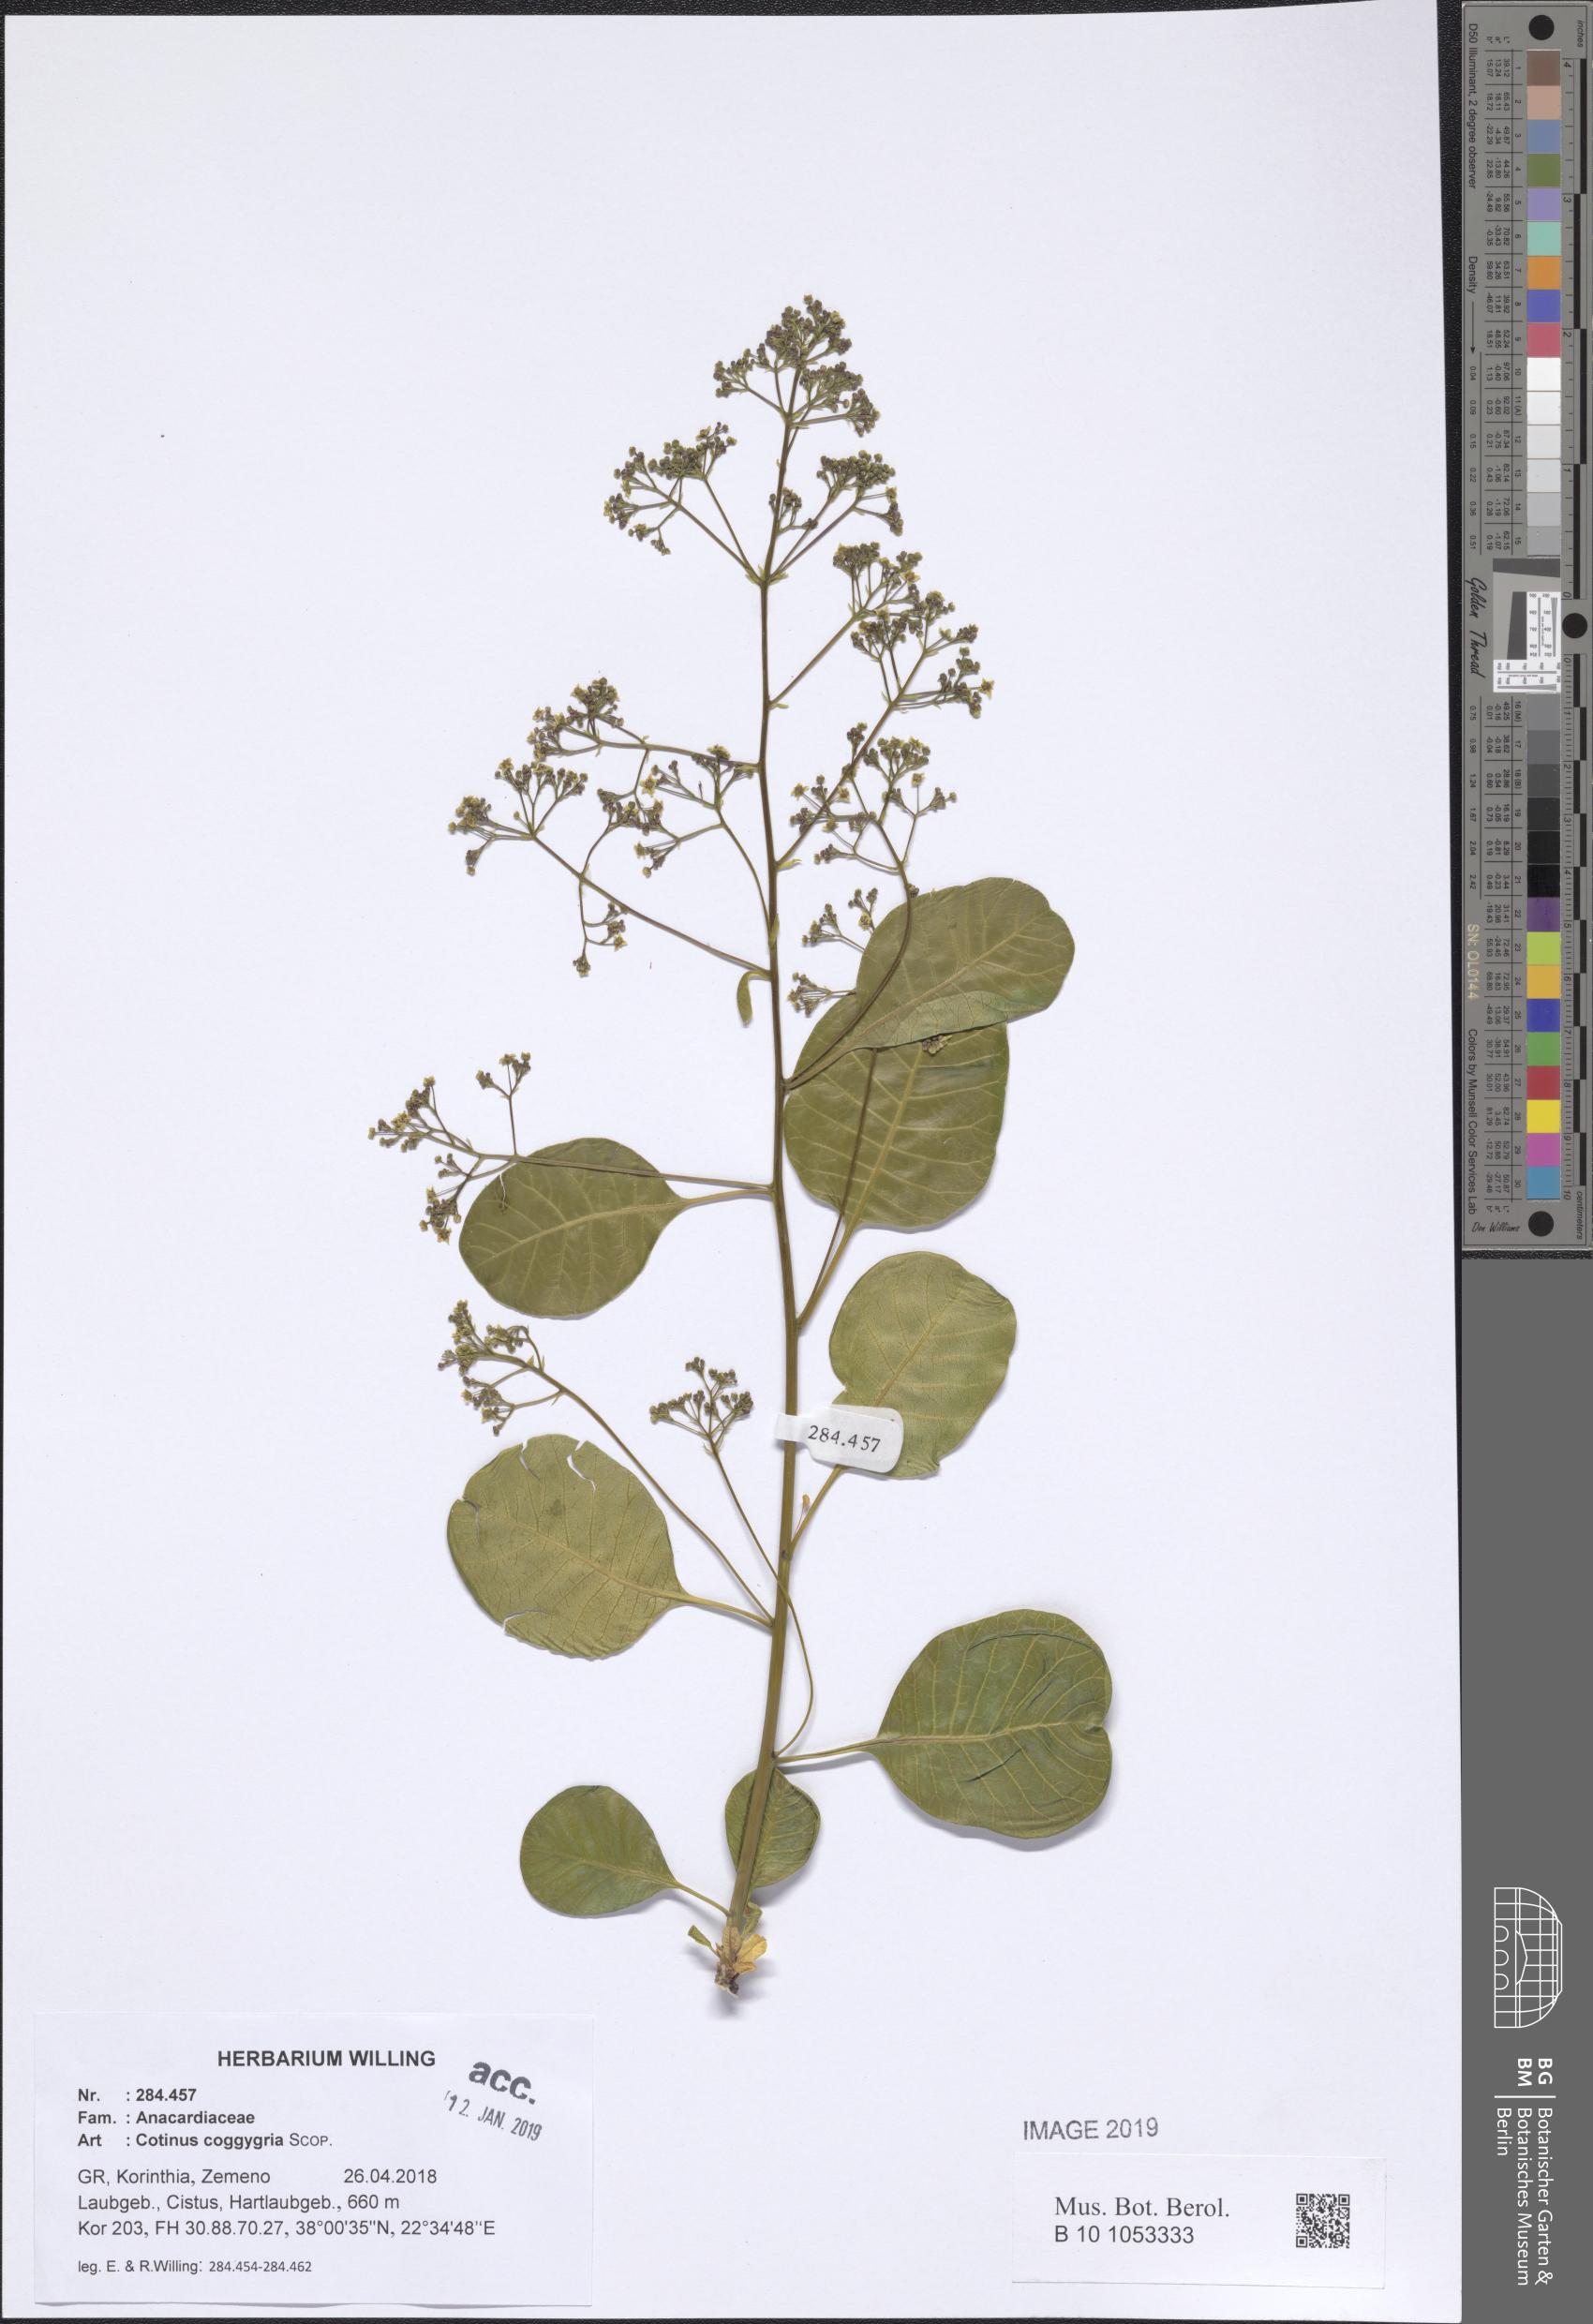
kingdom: Plantae
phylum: Tracheophyta
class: Magnoliopsida
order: Sapindales
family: Anacardiaceae
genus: Cotinus
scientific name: Cotinus coggygria
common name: Smoke-tree
